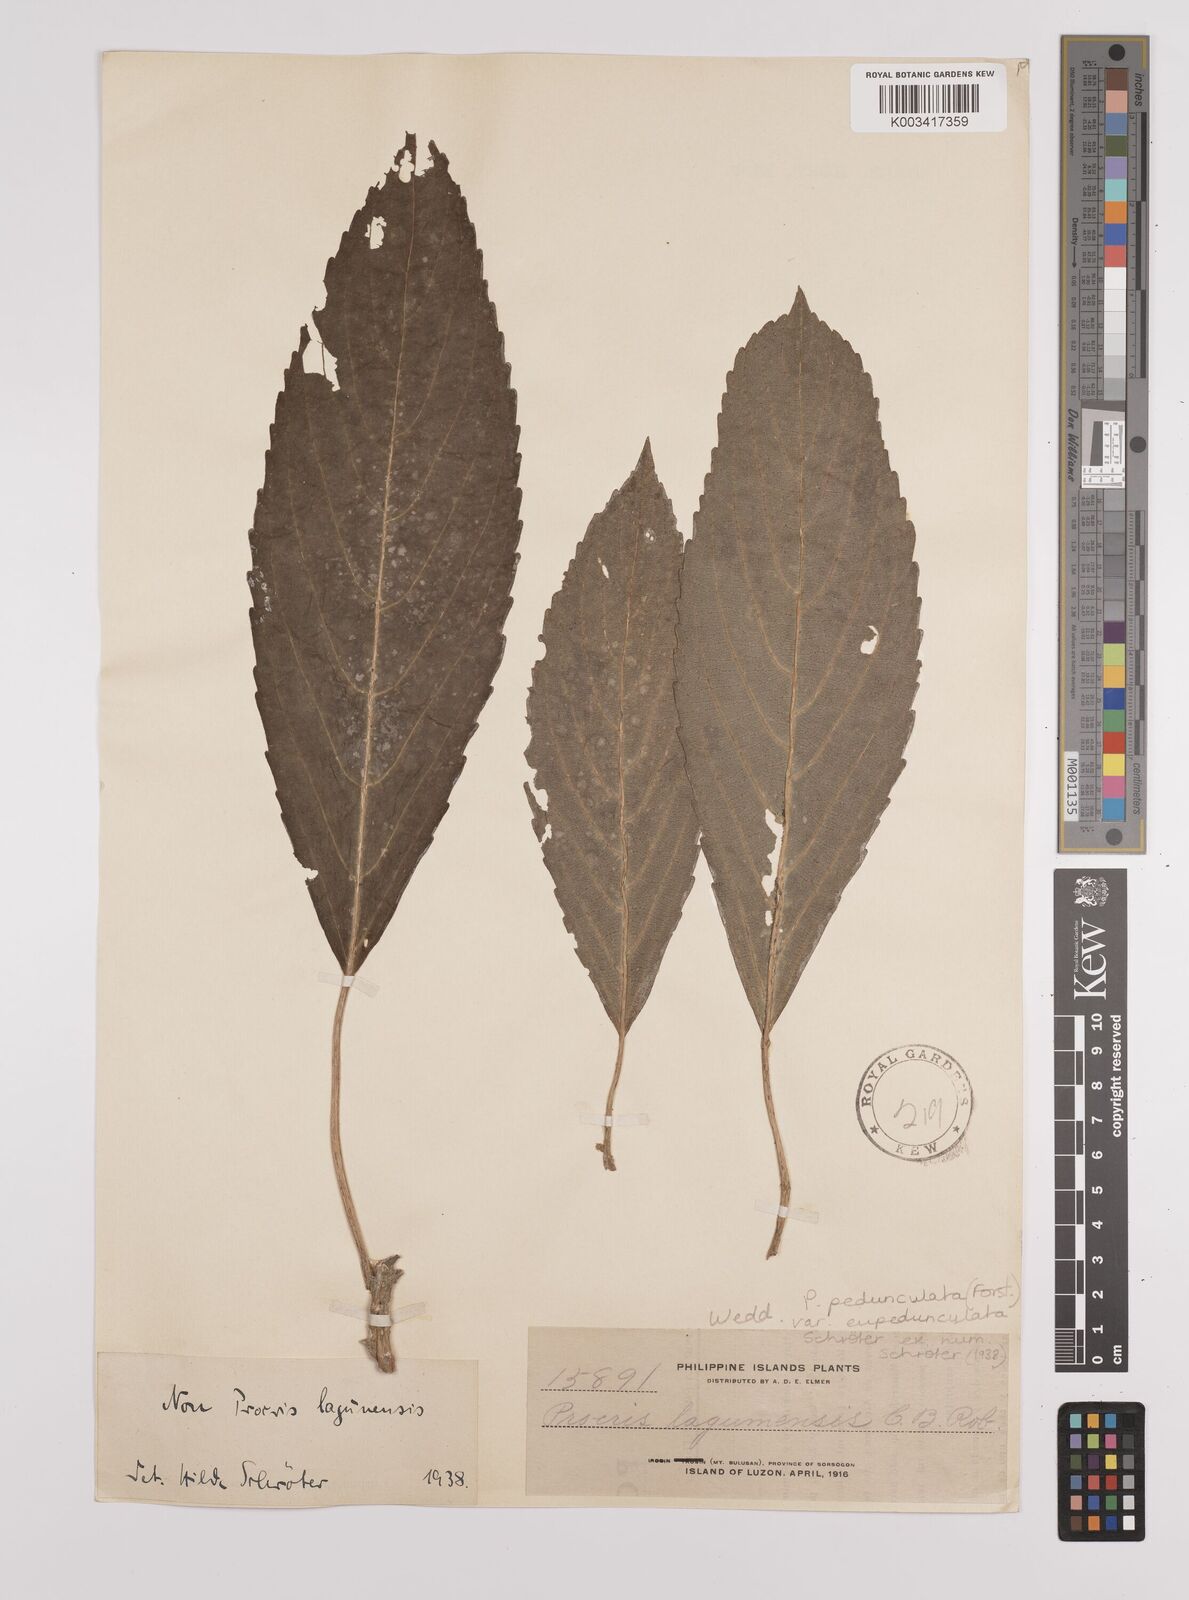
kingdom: Plantae
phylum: Tracheophyta
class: Magnoliopsida
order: Rosales
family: Urticaceae
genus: Procris
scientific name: Procris pedunculata
